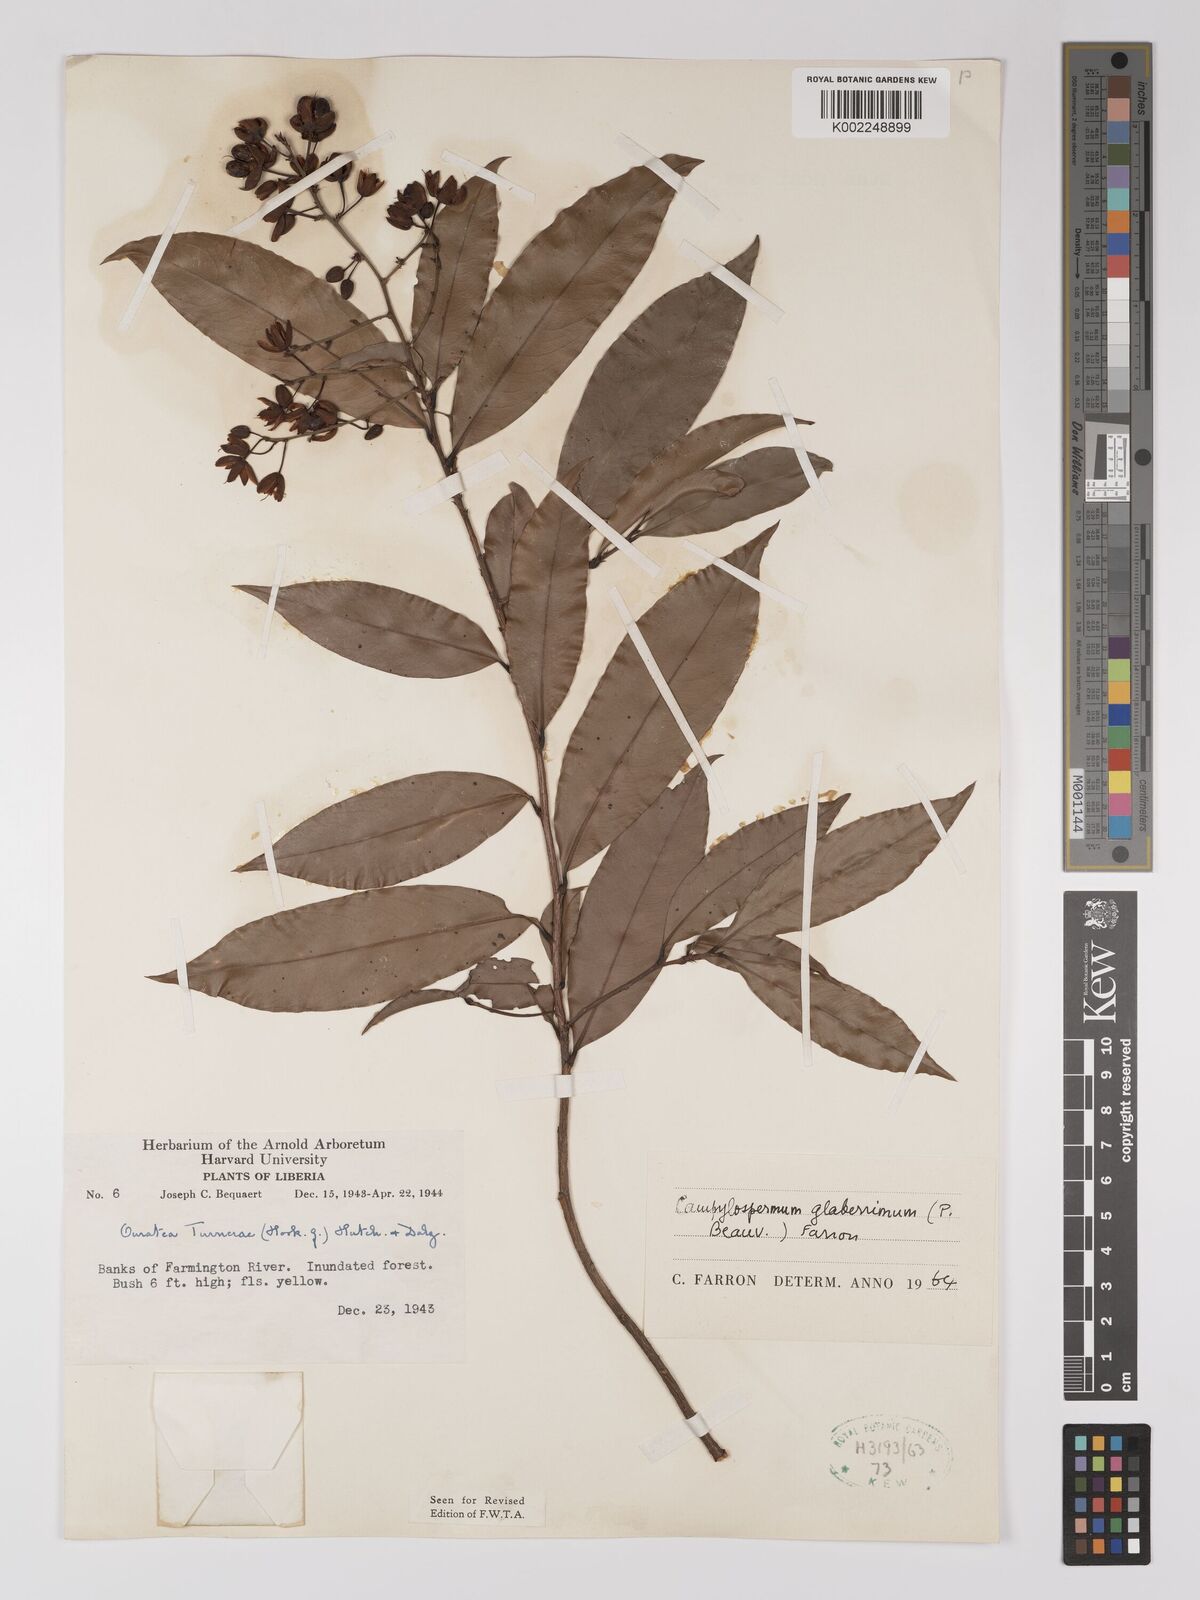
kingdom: Plantae
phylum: Tracheophyta
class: Magnoliopsida
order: Malpighiales
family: Ochnaceae
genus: Campylospermum
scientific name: Campylospermum glaberrimum
